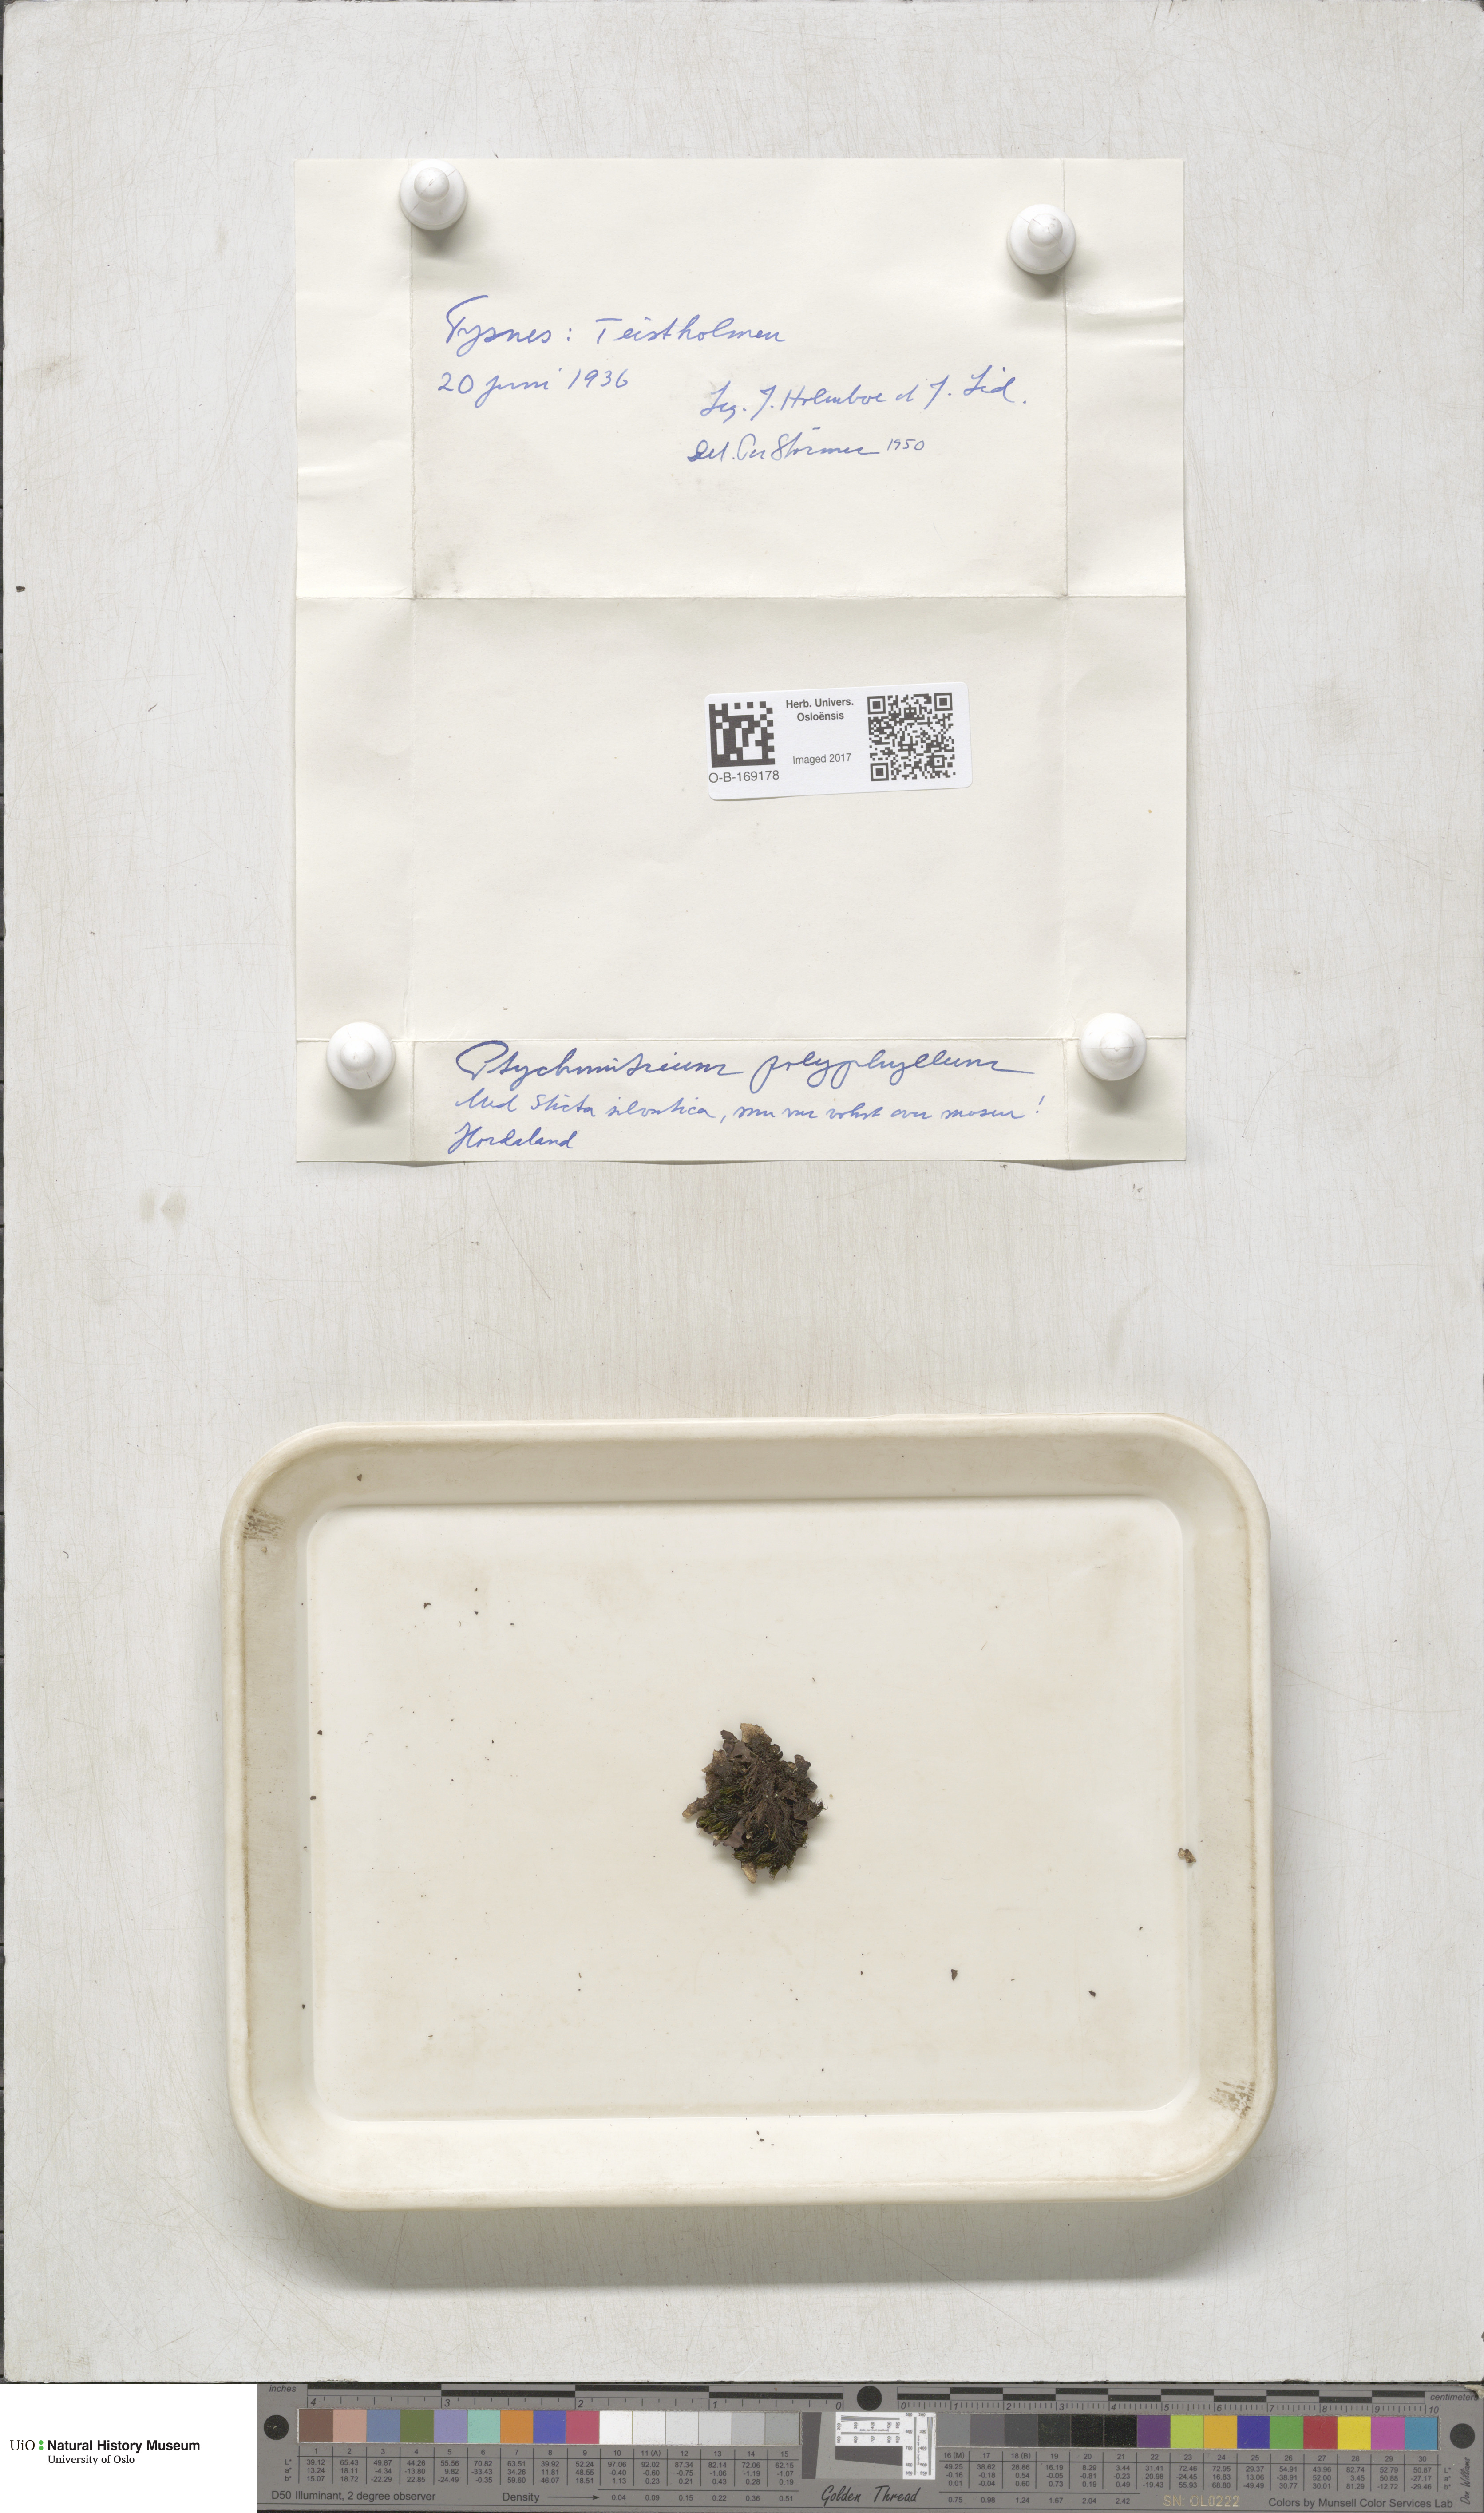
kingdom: Plantae
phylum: Bryophyta
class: Bryopsida
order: Grimmiales
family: Ptychomitriaceae
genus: Ptychomitrium
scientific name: Ptychomitrium polyphyllum
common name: Greater pincushion
